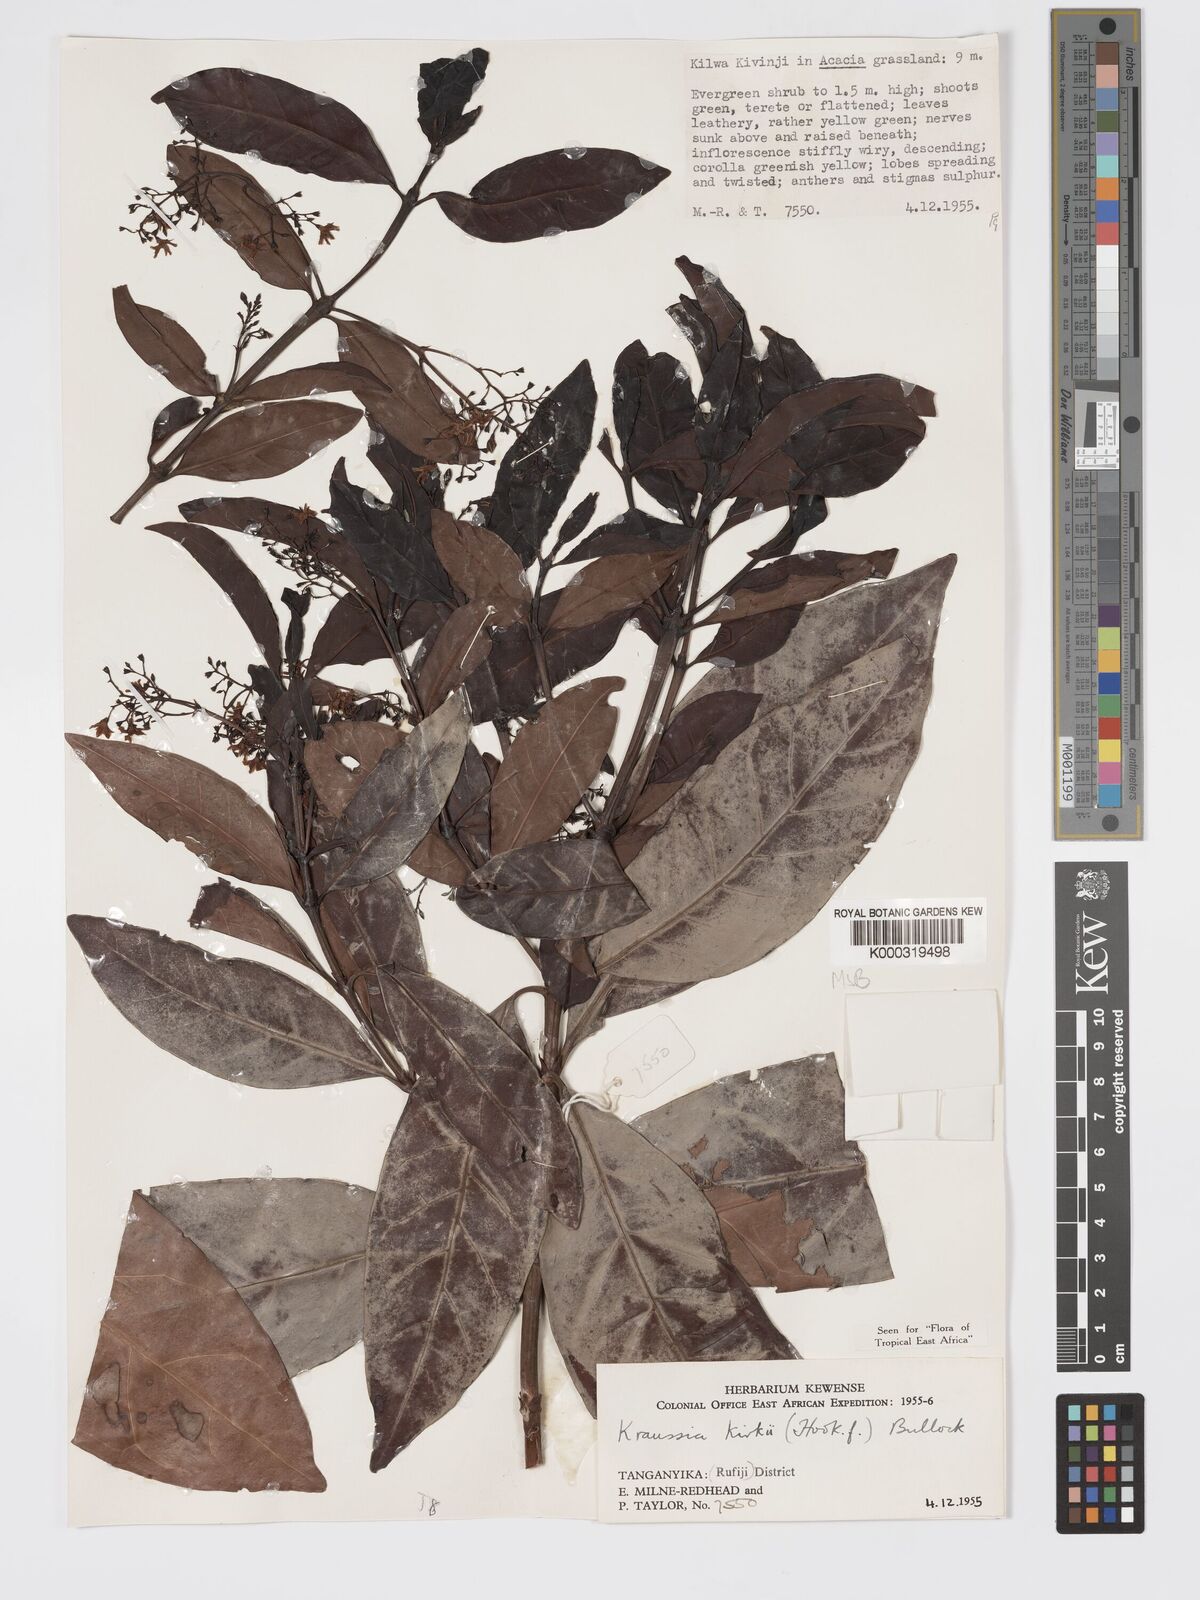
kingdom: Plantae
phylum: Tracheophyta
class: Magnoliopsida
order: Gentianales
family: Rubiaceae
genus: Kraussia
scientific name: Kraussia kirkii
